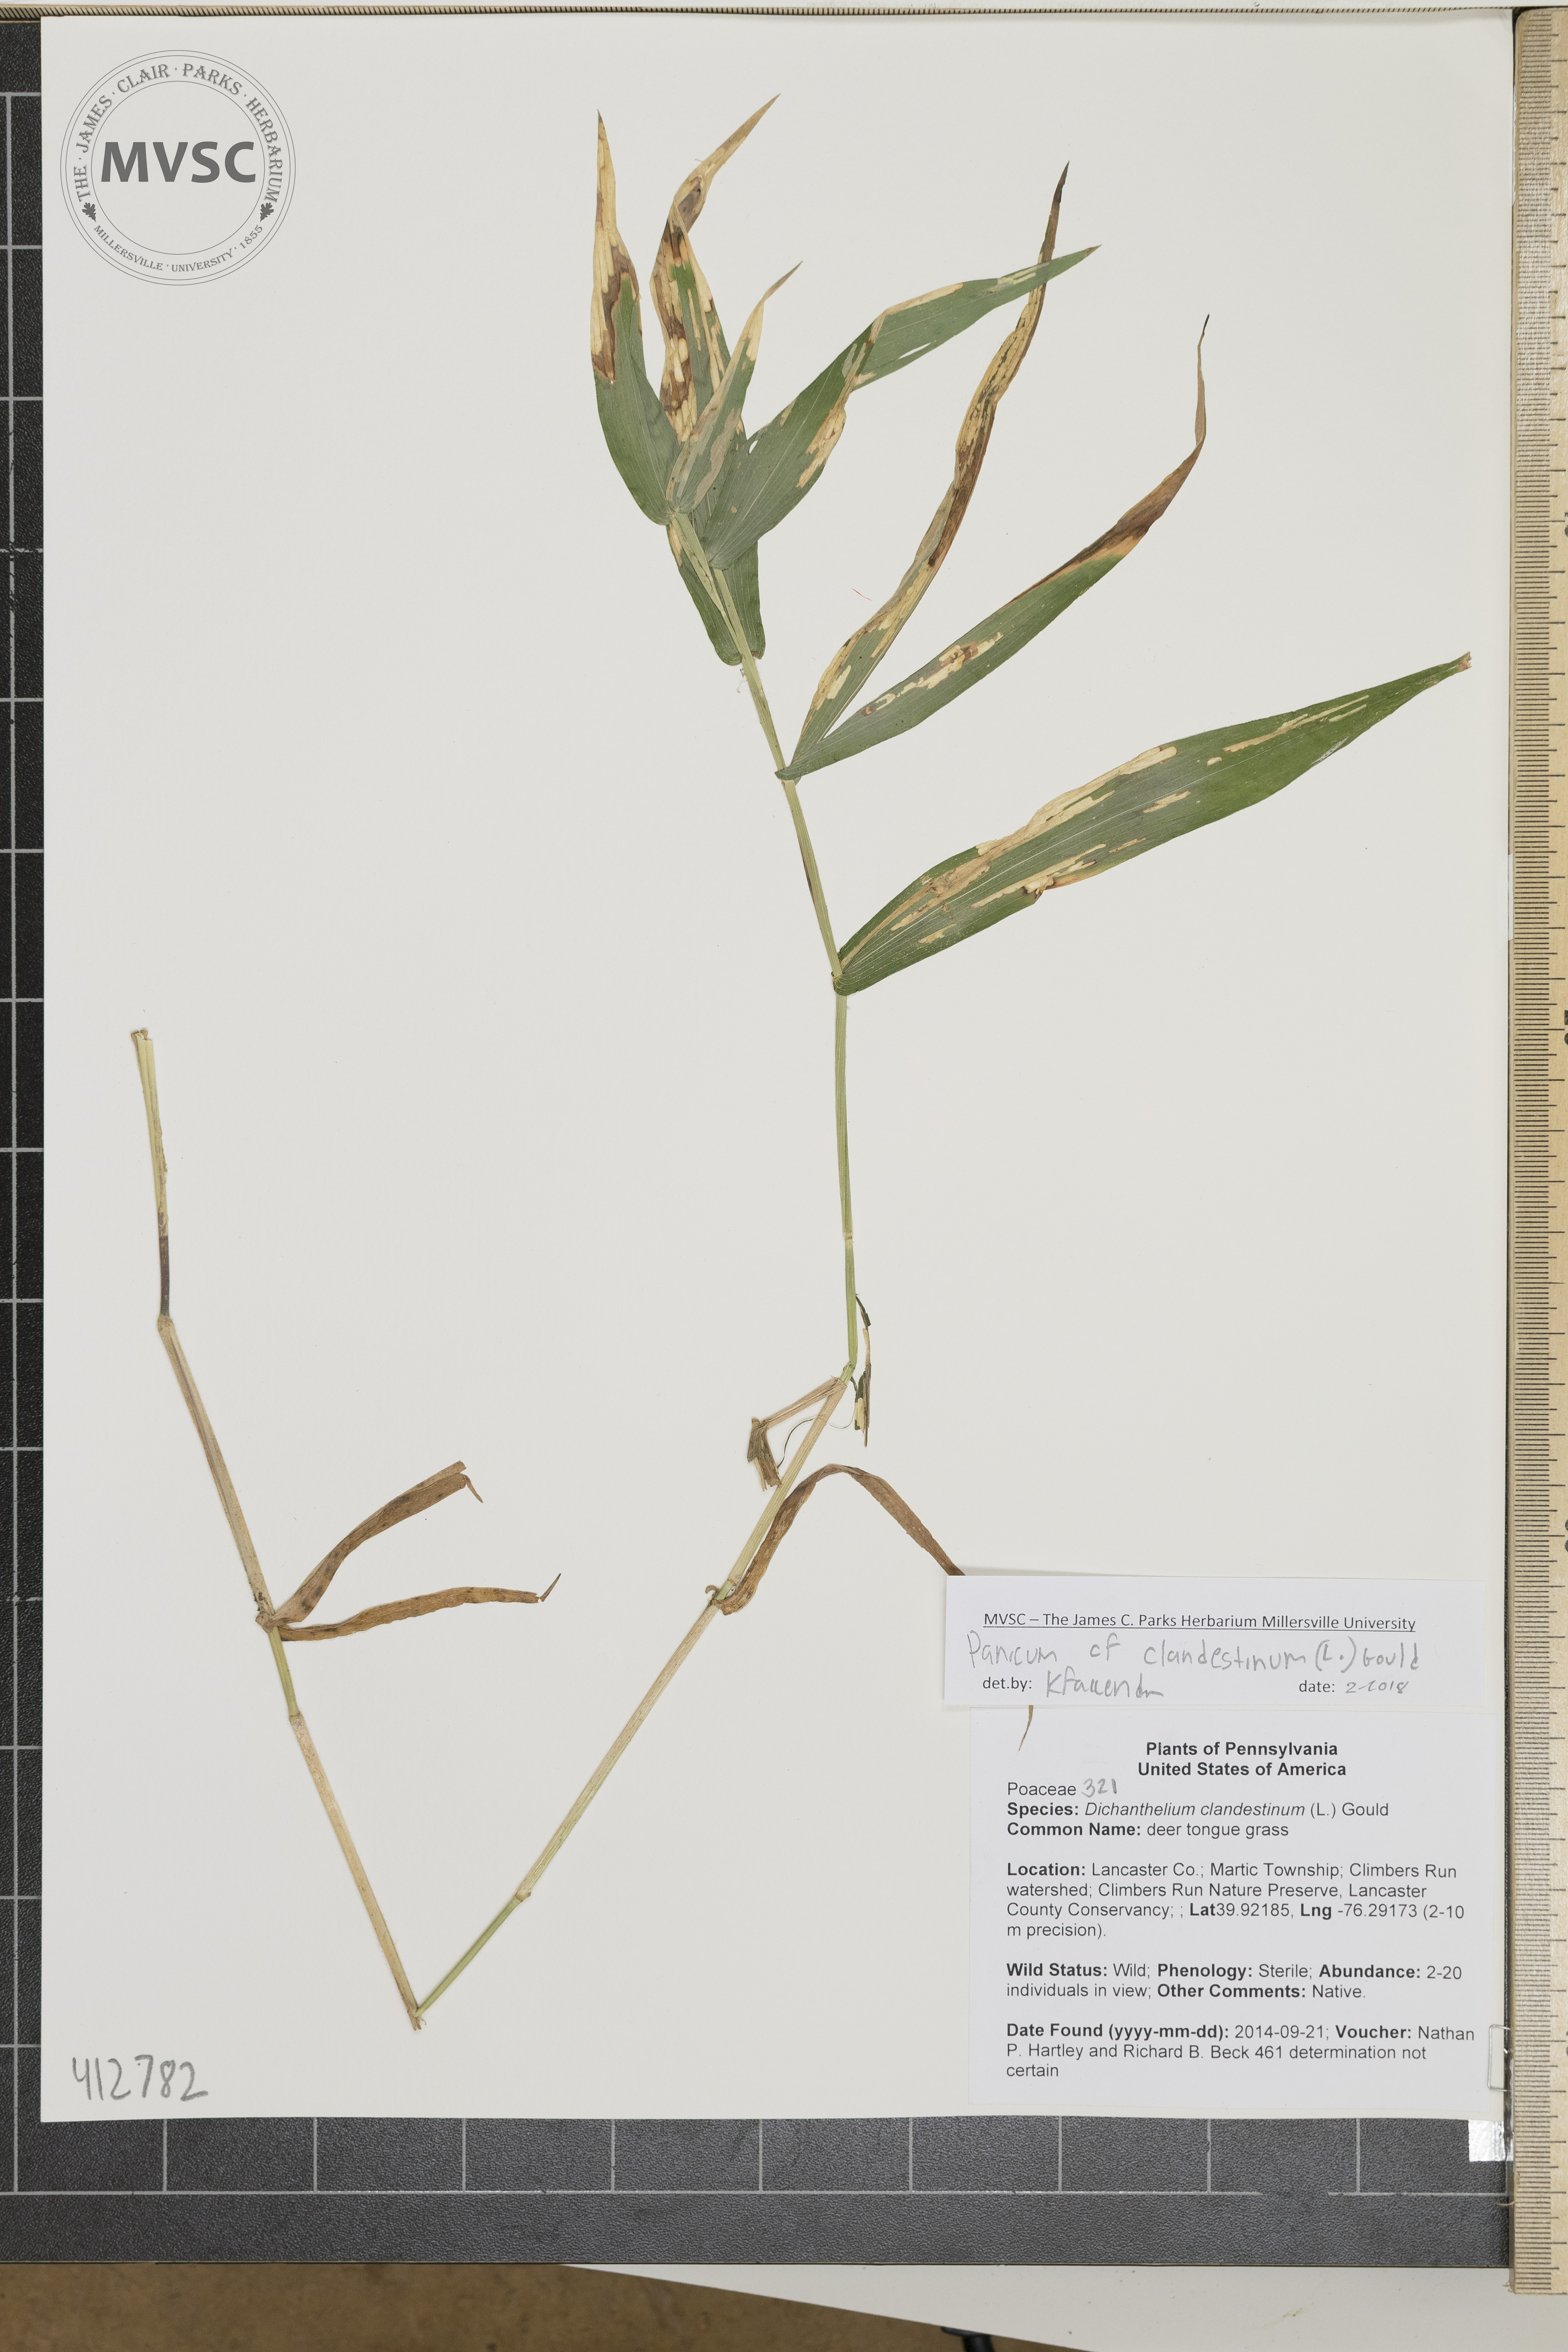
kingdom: Plantae
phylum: Tracheophyta
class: Liliopsida
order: Poales
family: Poaceae
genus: Dichanthelium
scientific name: Dichanthelium clandestinum
